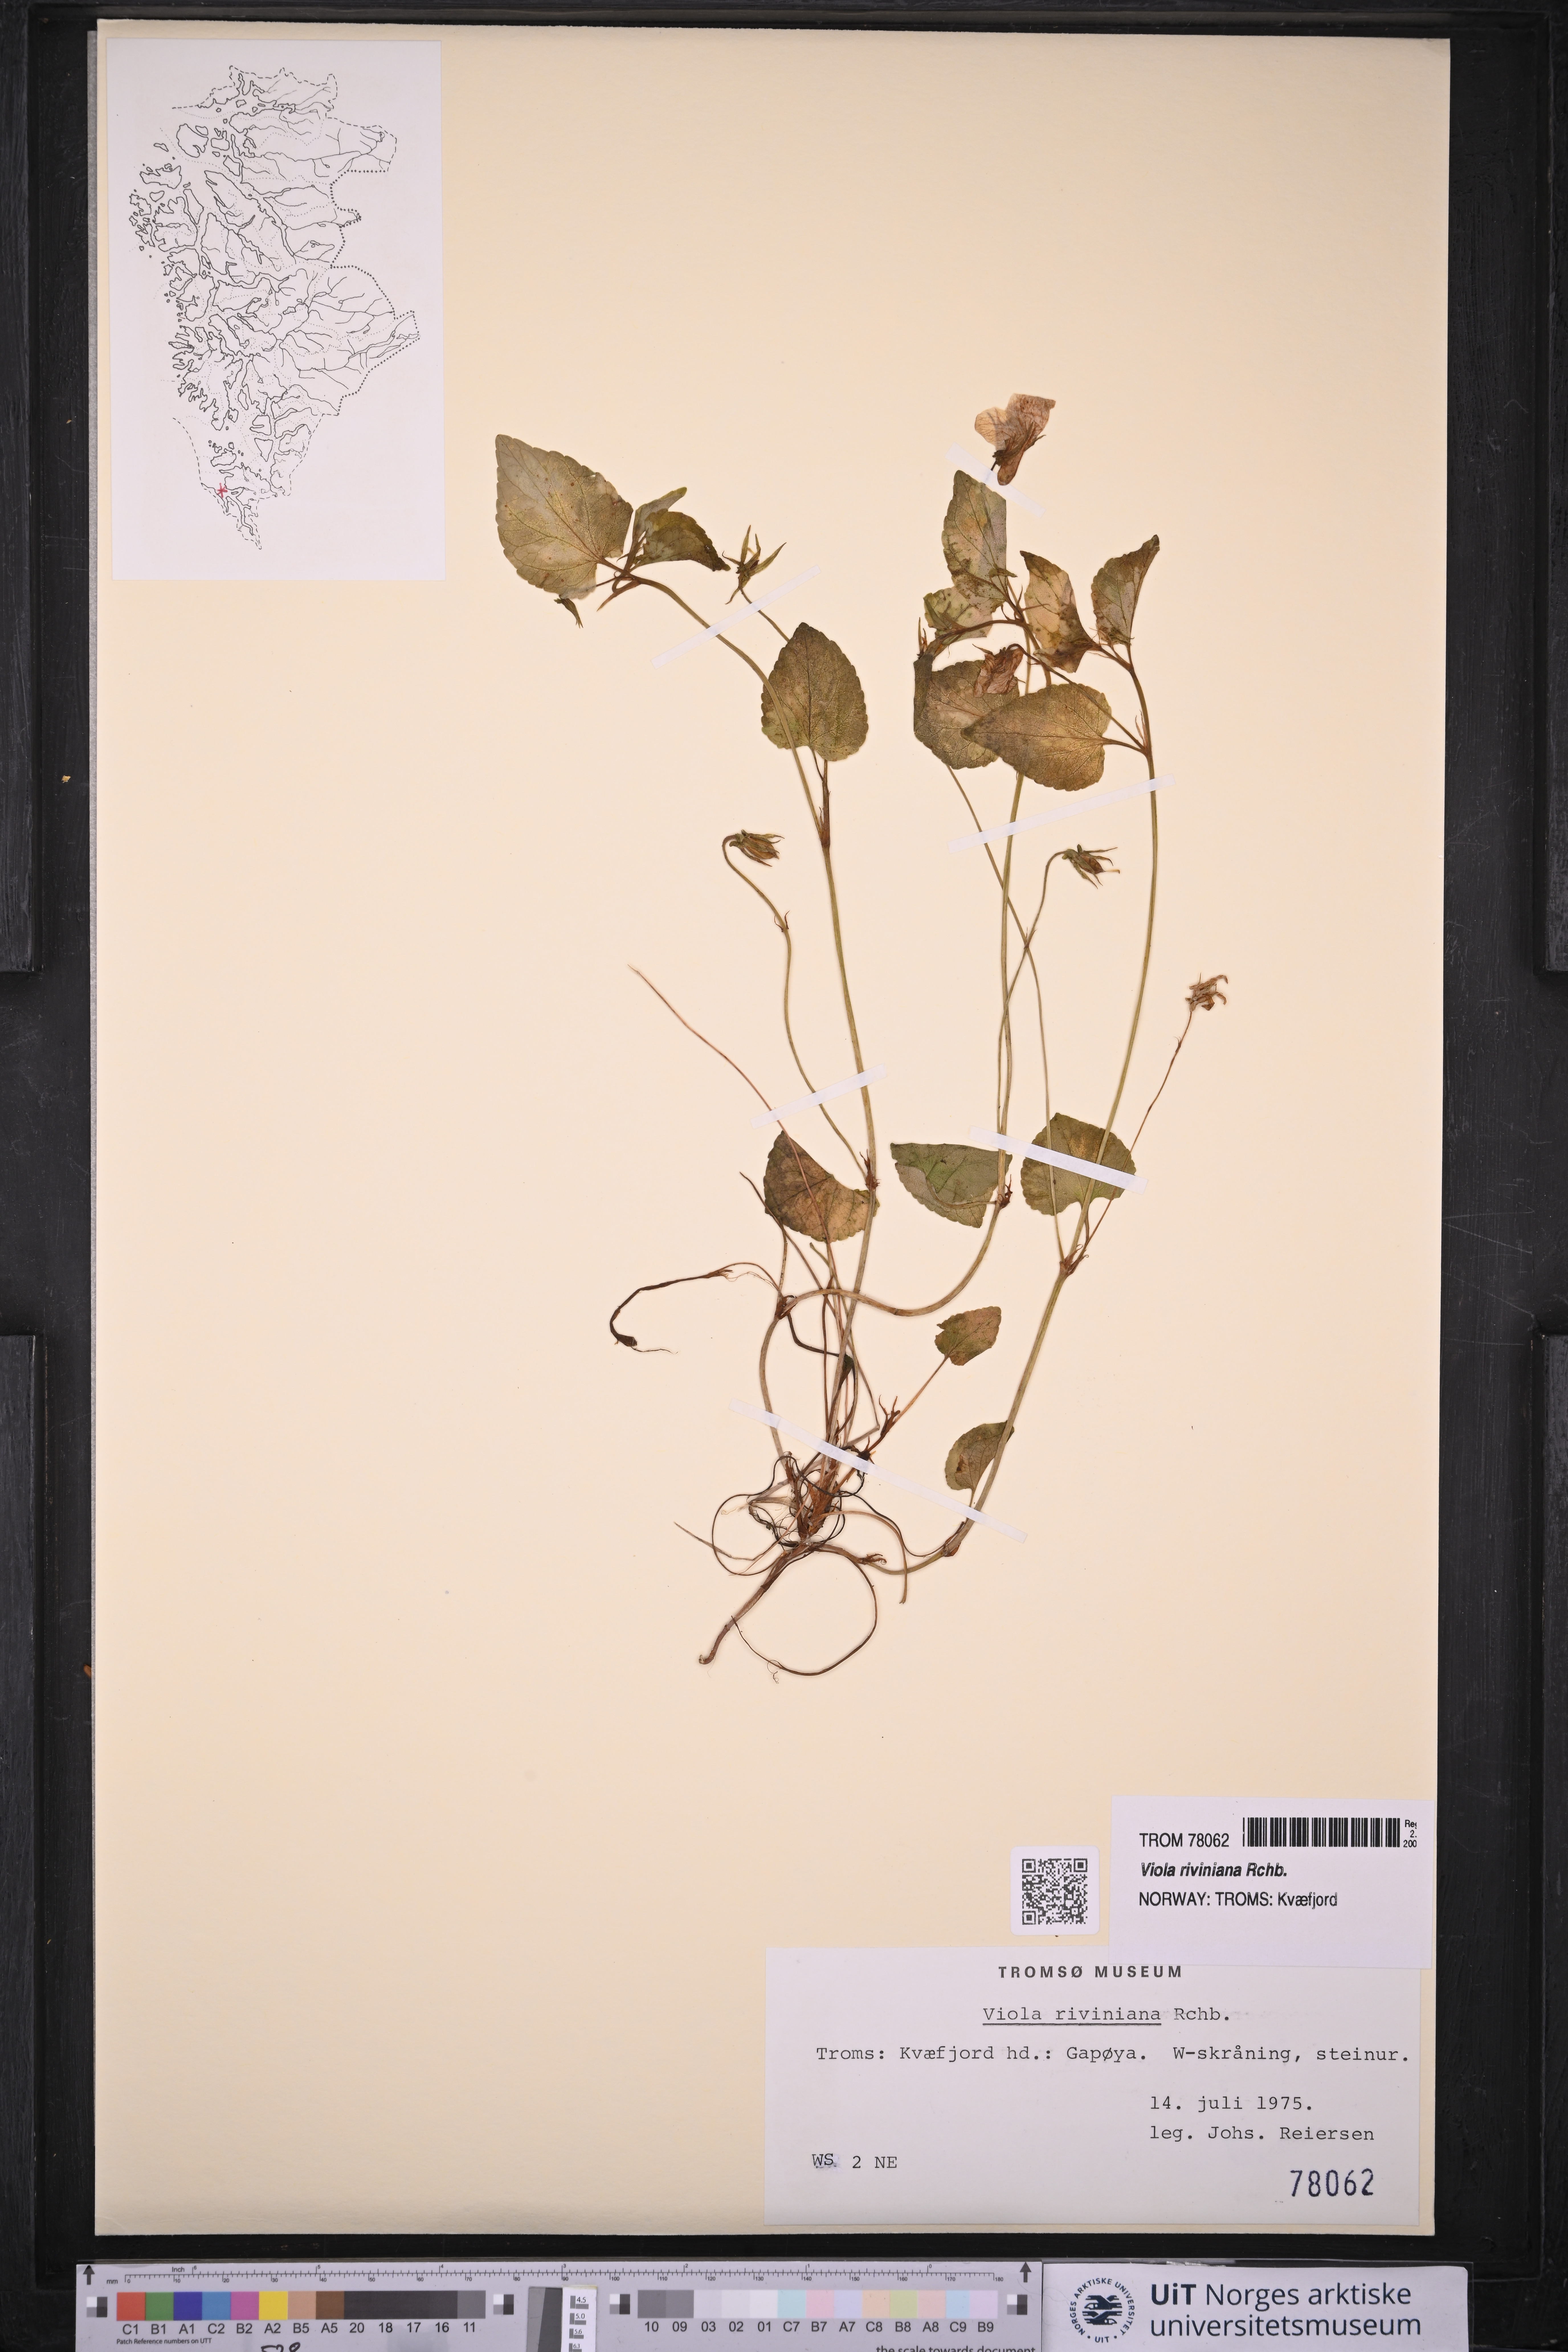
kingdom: Plantae
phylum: Tracheophyta
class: Magnoliopsida
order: Malpighiales
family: Violaceae
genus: Viola
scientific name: Viola riviniana
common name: Common dog-violet
